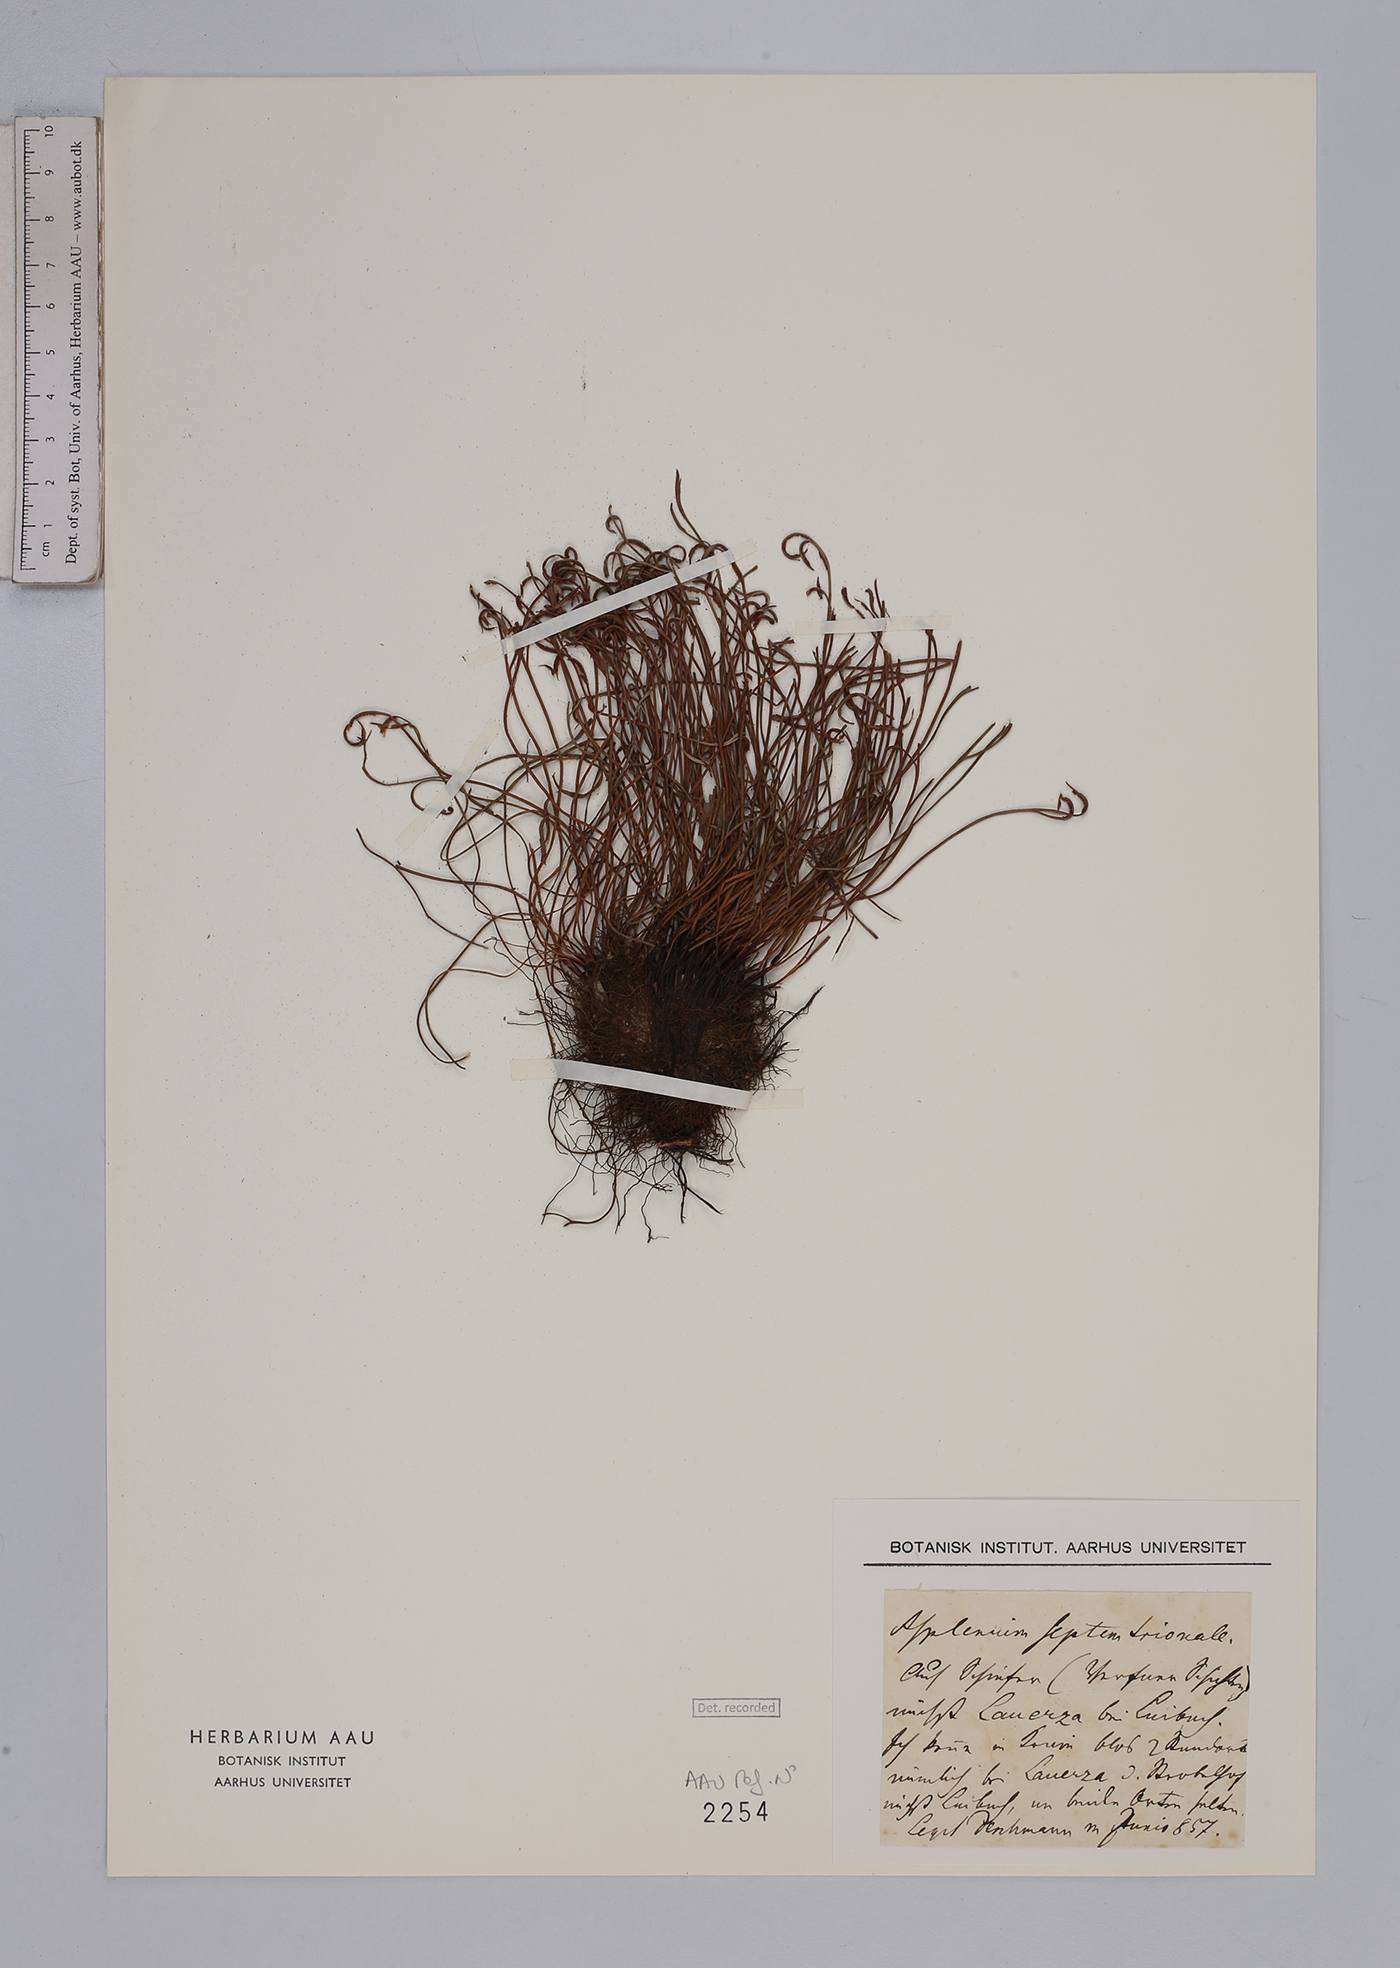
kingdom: Plantae
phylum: Tracheophyta
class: Polypodiopsida
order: Polypodiales
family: Aspleniaceae
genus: Asplenium
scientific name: Asplenium septentrionale
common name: Forked spleenwort
